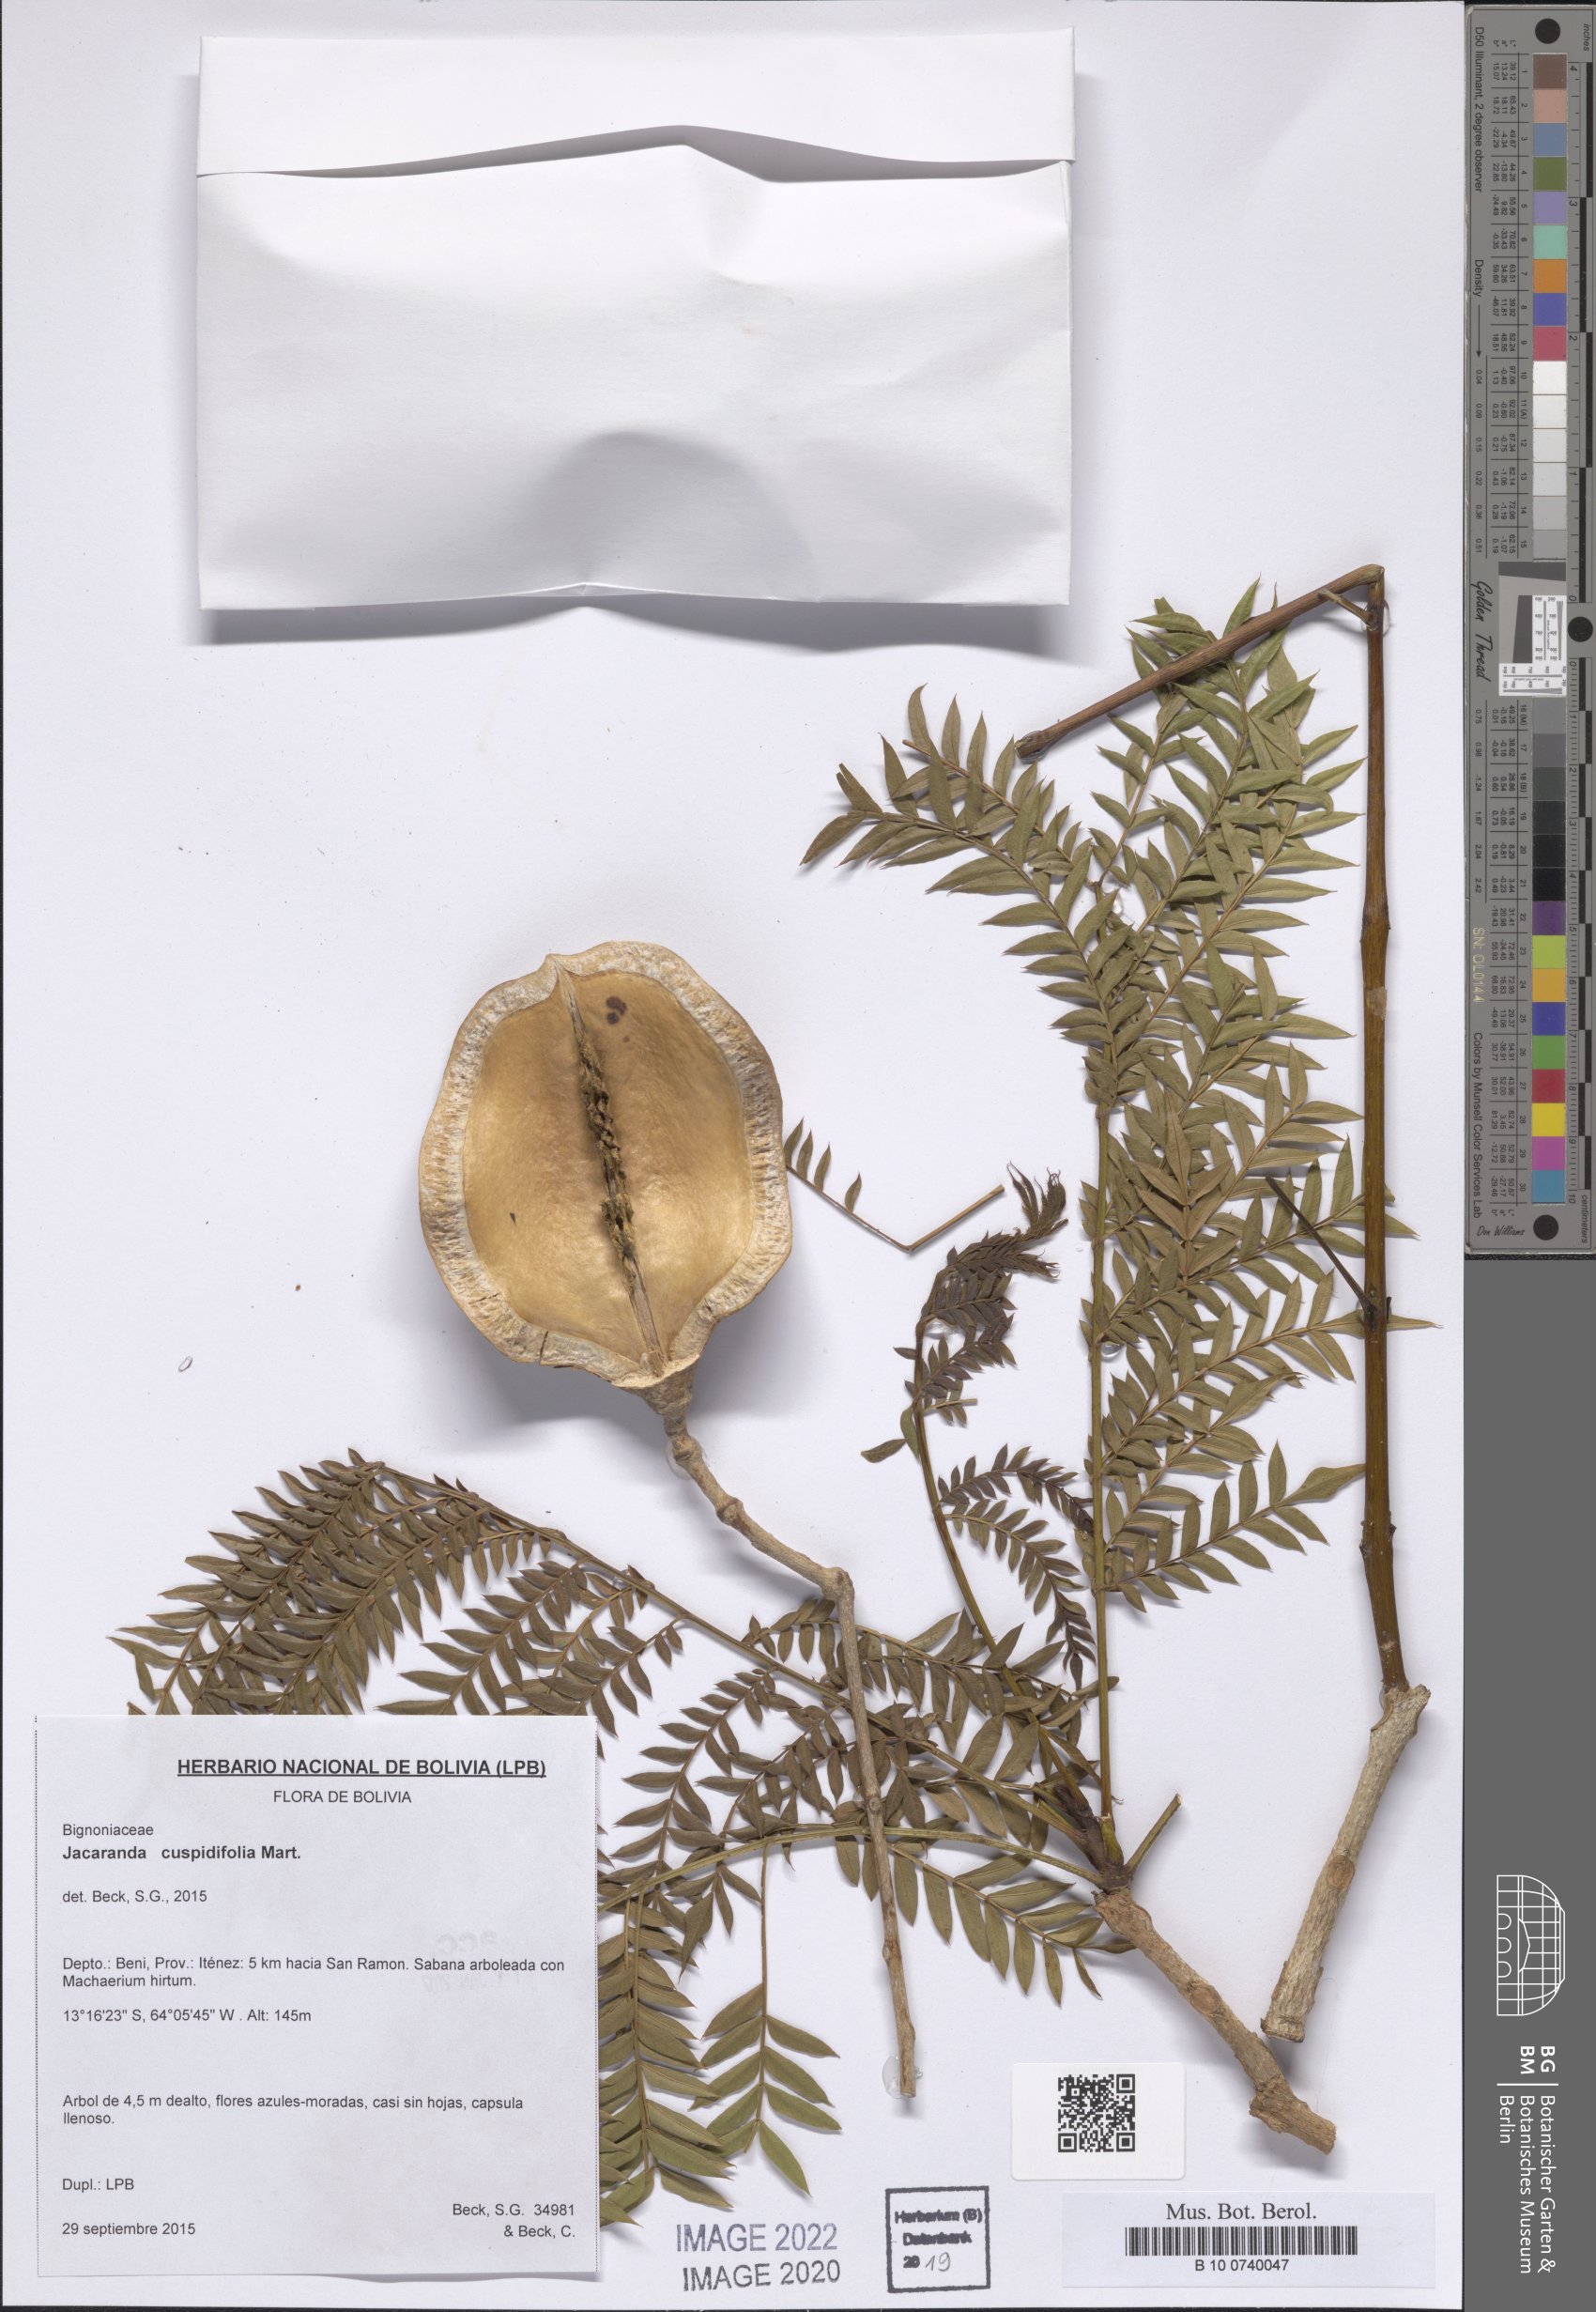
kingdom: Plantae
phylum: Tracheophyta
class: Magnoliopsida
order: Lamiales
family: Bignoniaceae
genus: Jacaranda
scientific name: Jacaranda cuspidifolia
